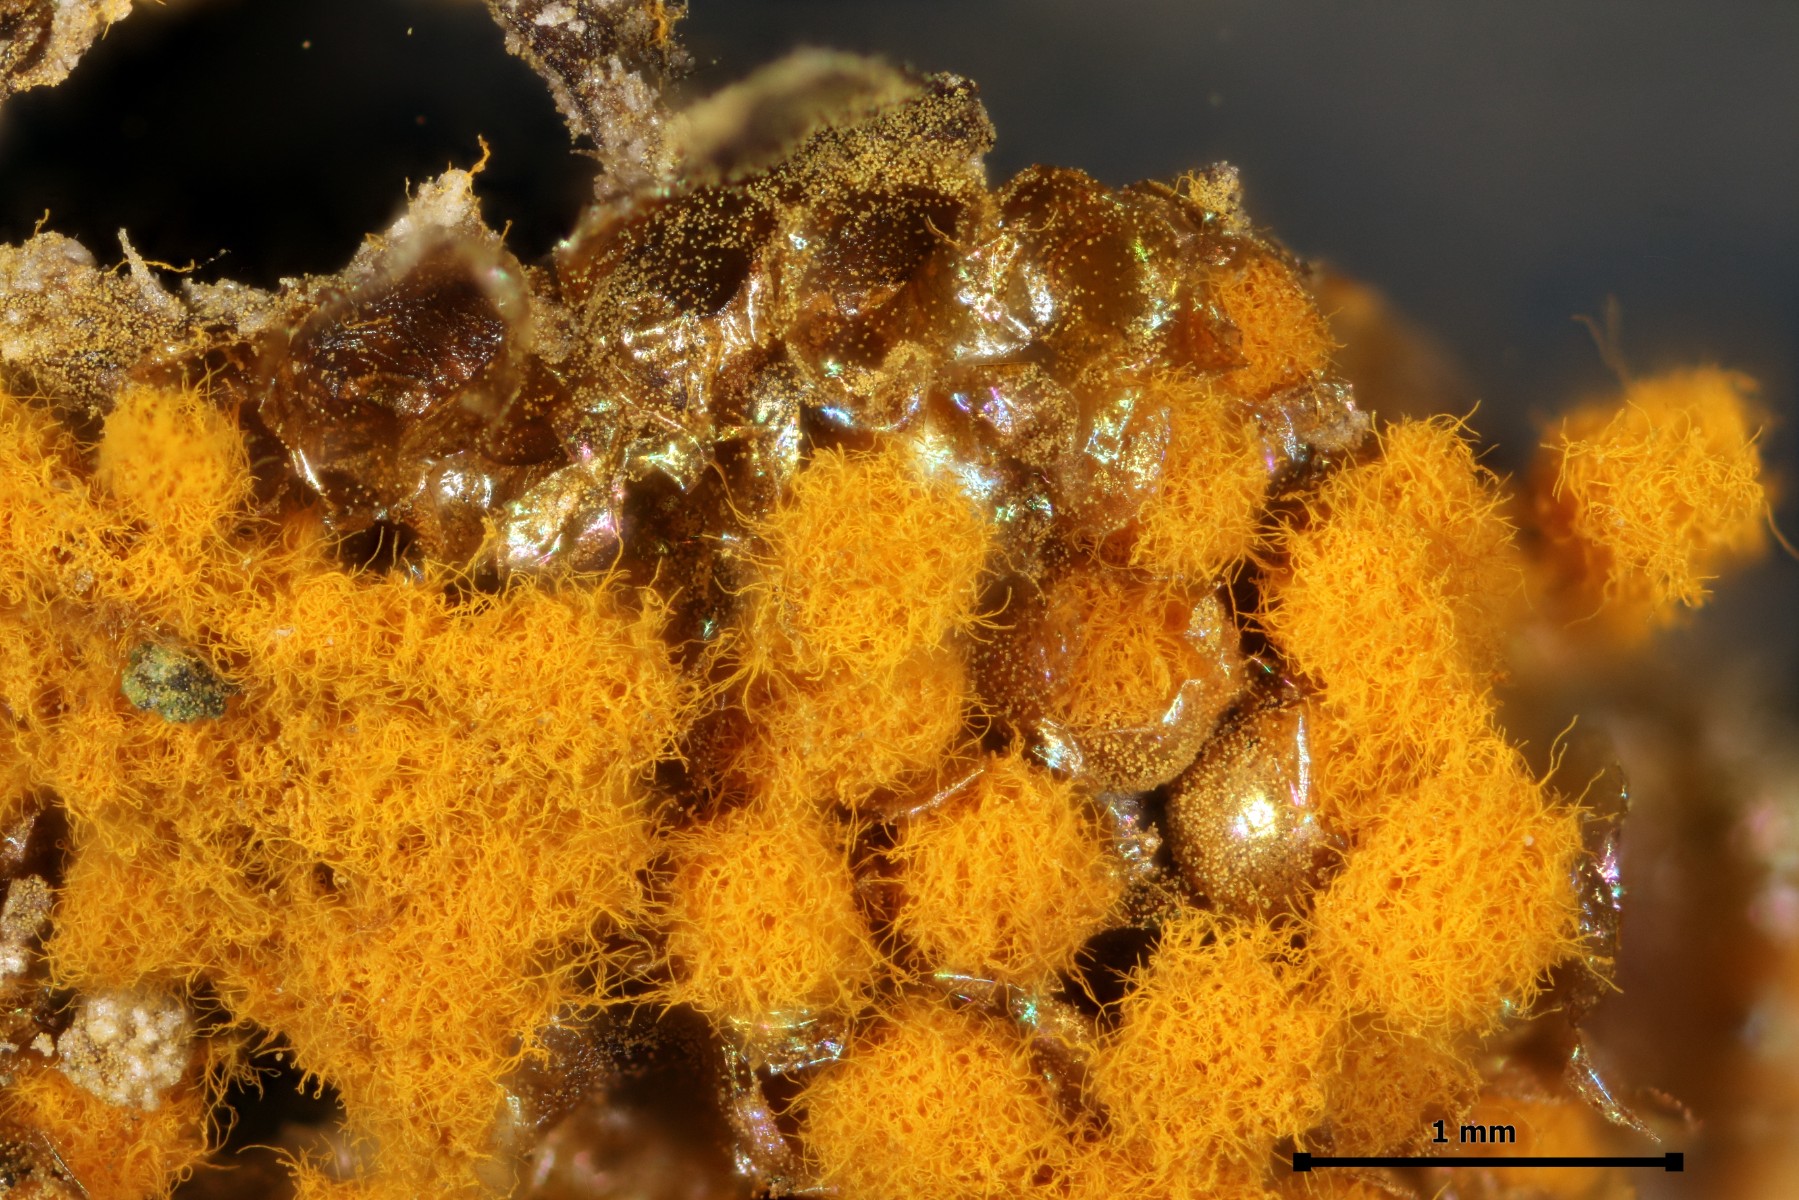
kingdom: Protozoa
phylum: Mycetozoa
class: Myxomycetes
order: Trichiales
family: Trichiaceae
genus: Trichia
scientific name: Trichia scabra
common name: tæppe-hårbold
